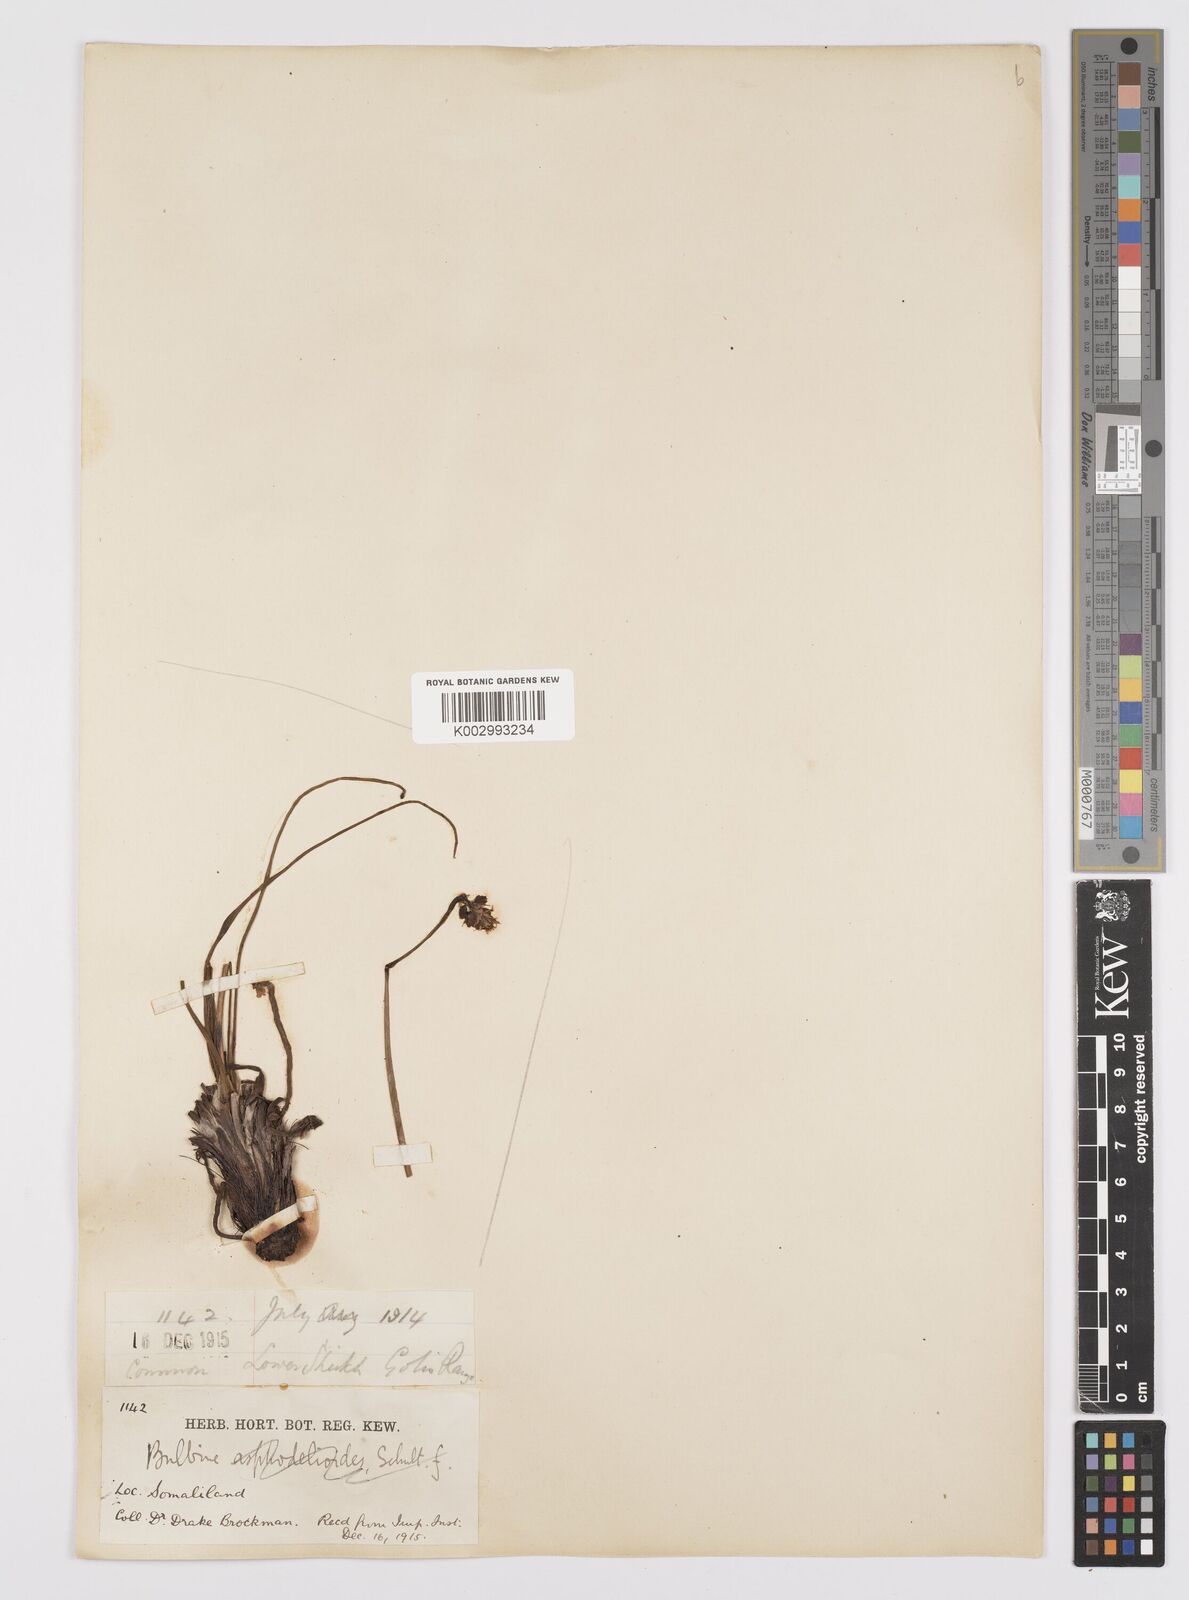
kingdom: Plantae
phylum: Tracheophyta
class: Liliopsida
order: Asparagales
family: Asphodelaceae
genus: Bulbine
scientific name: Bulbine abyssinica
